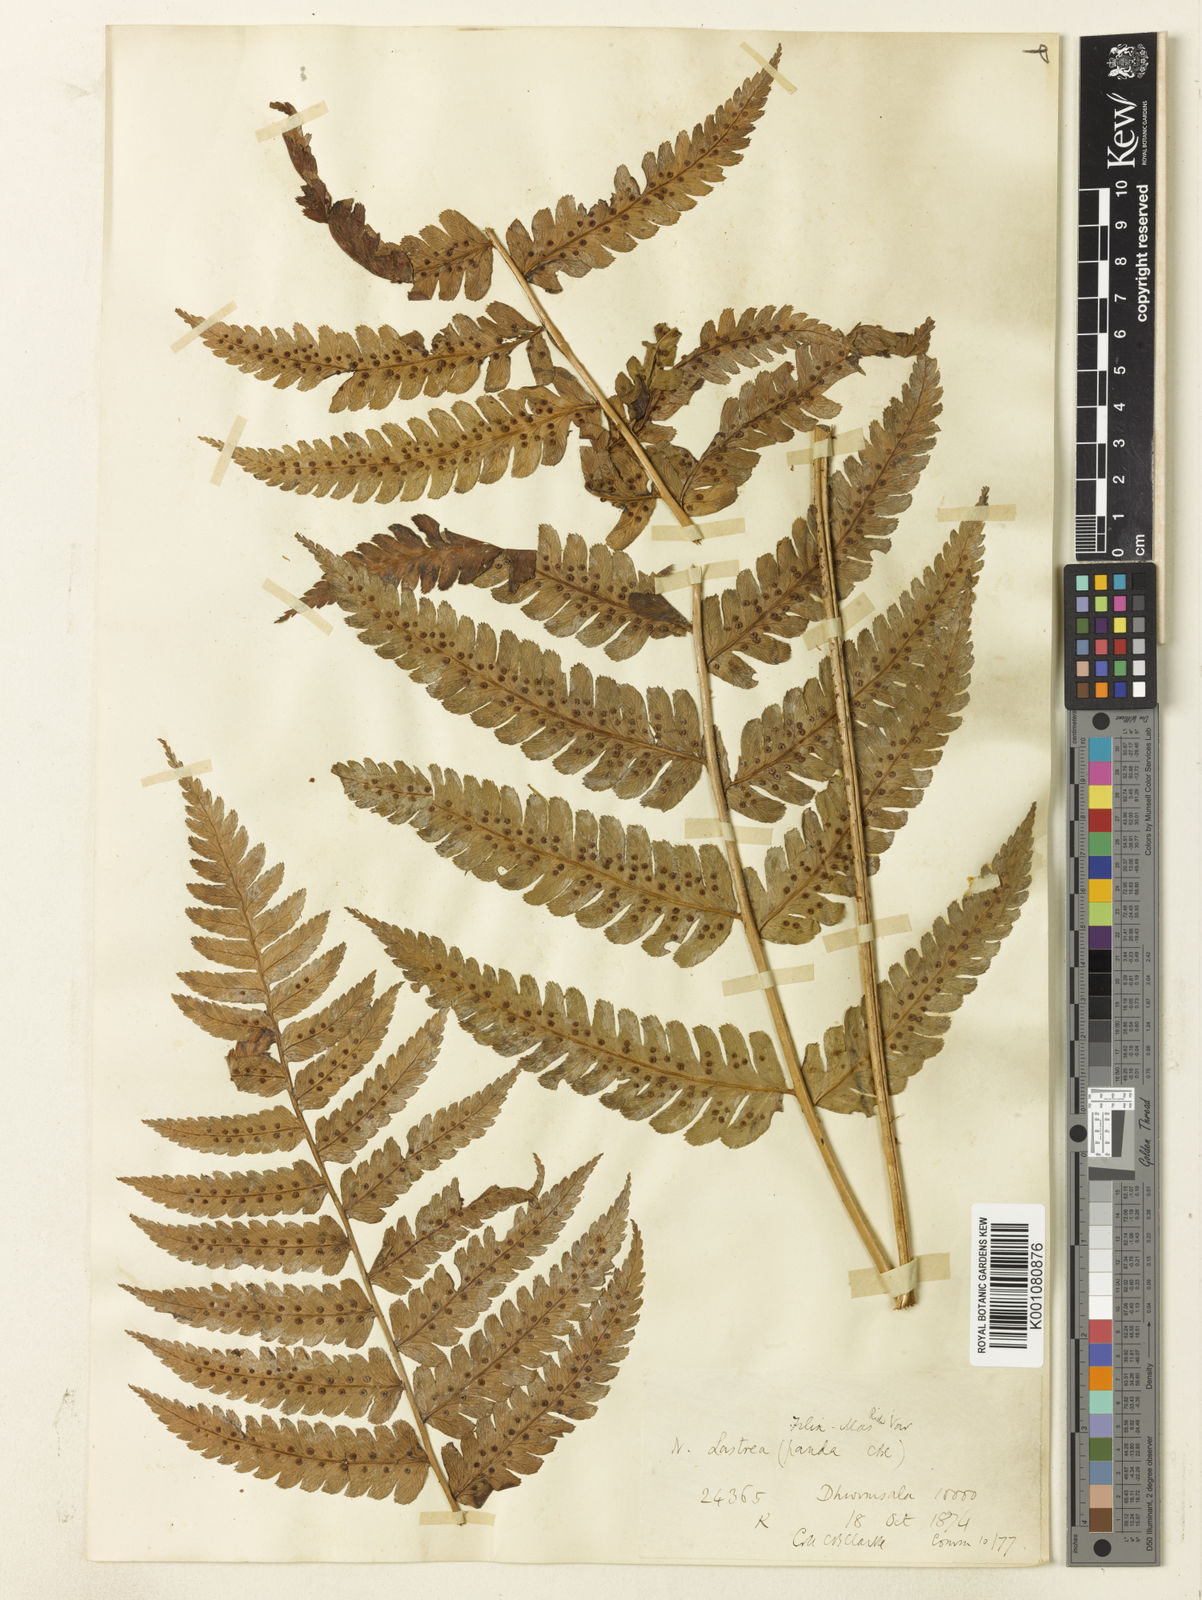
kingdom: Plantae
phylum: Tracheophyta
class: Polypodiopsida
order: Polypodiales
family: Dryopteridaceae
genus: Dryopteris
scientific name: Dryopteris panda
